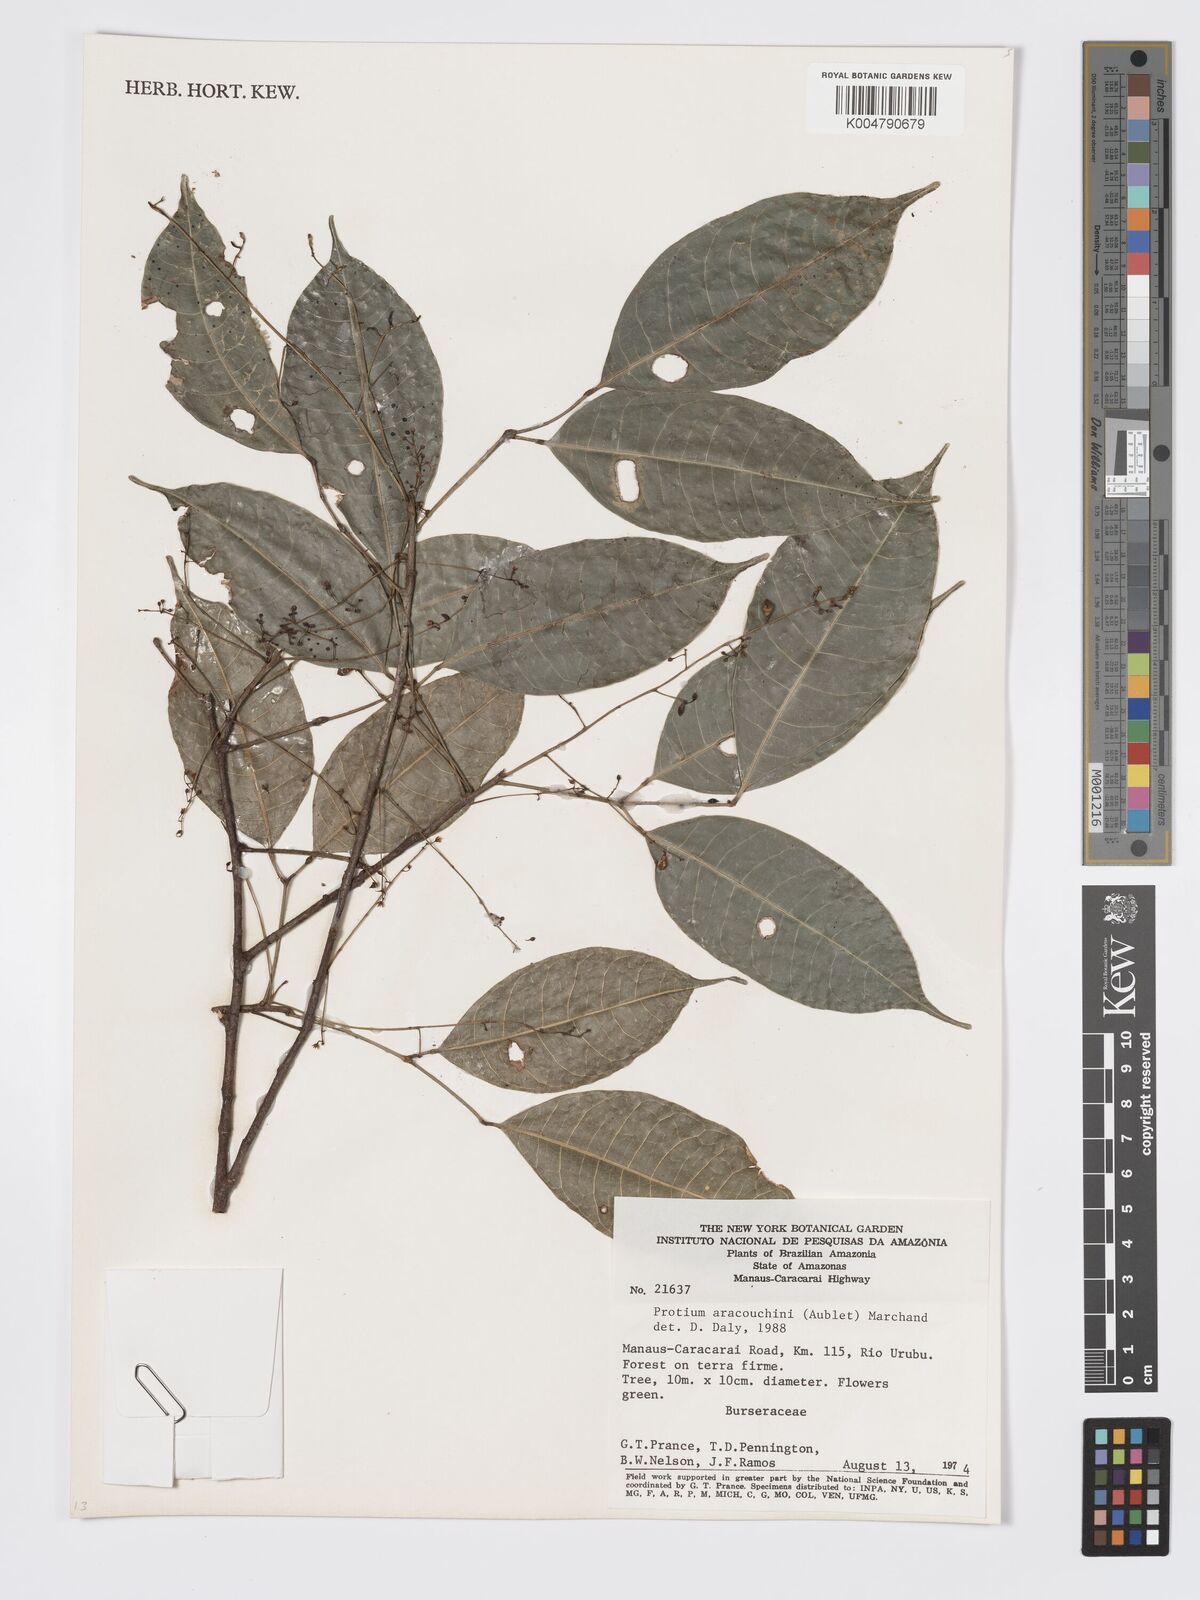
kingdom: Plantae
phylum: Tracheophyta
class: Magnoliopsida
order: Sapindales
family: Burseraceae
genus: Protium
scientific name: Protium aracouchini
